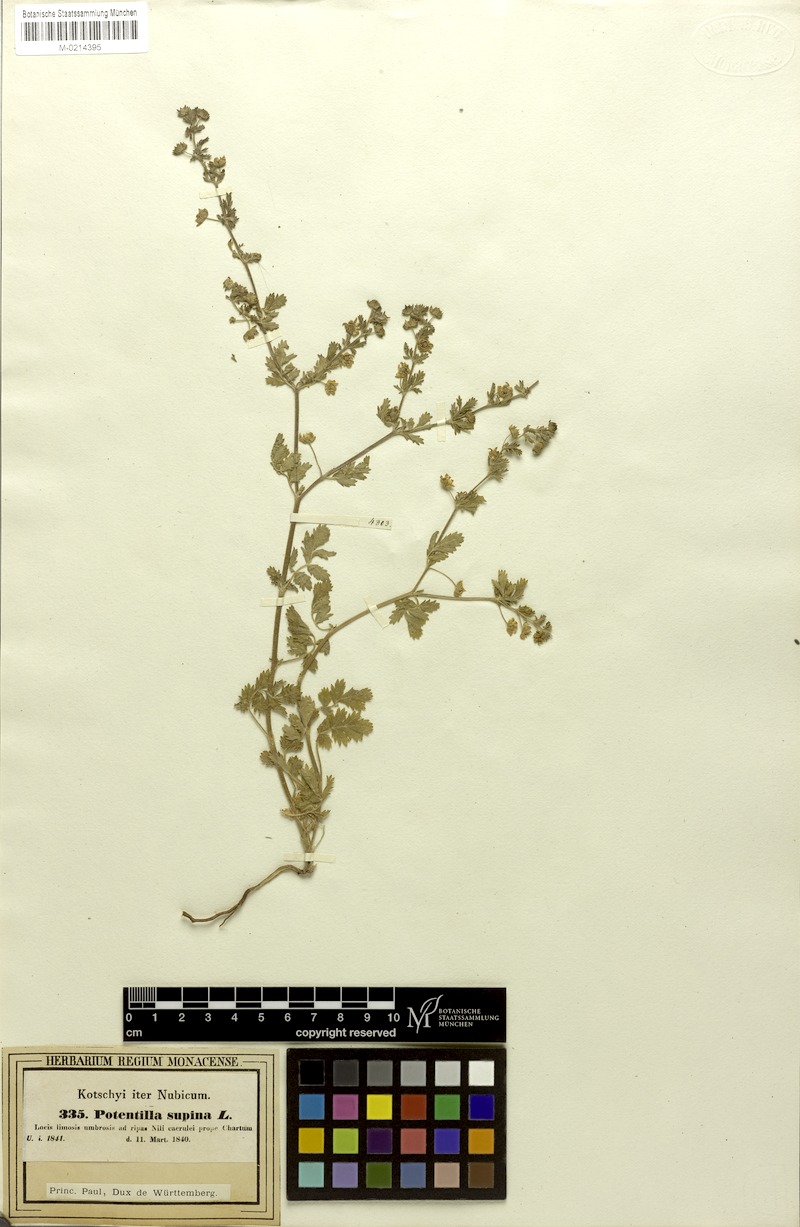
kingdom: Plantae
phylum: Tracheophyta
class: Magnoliopsida
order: Rosales
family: Rosaceae
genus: Potentilla
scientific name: Potentilla supina
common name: Prostrate cinquefoil
